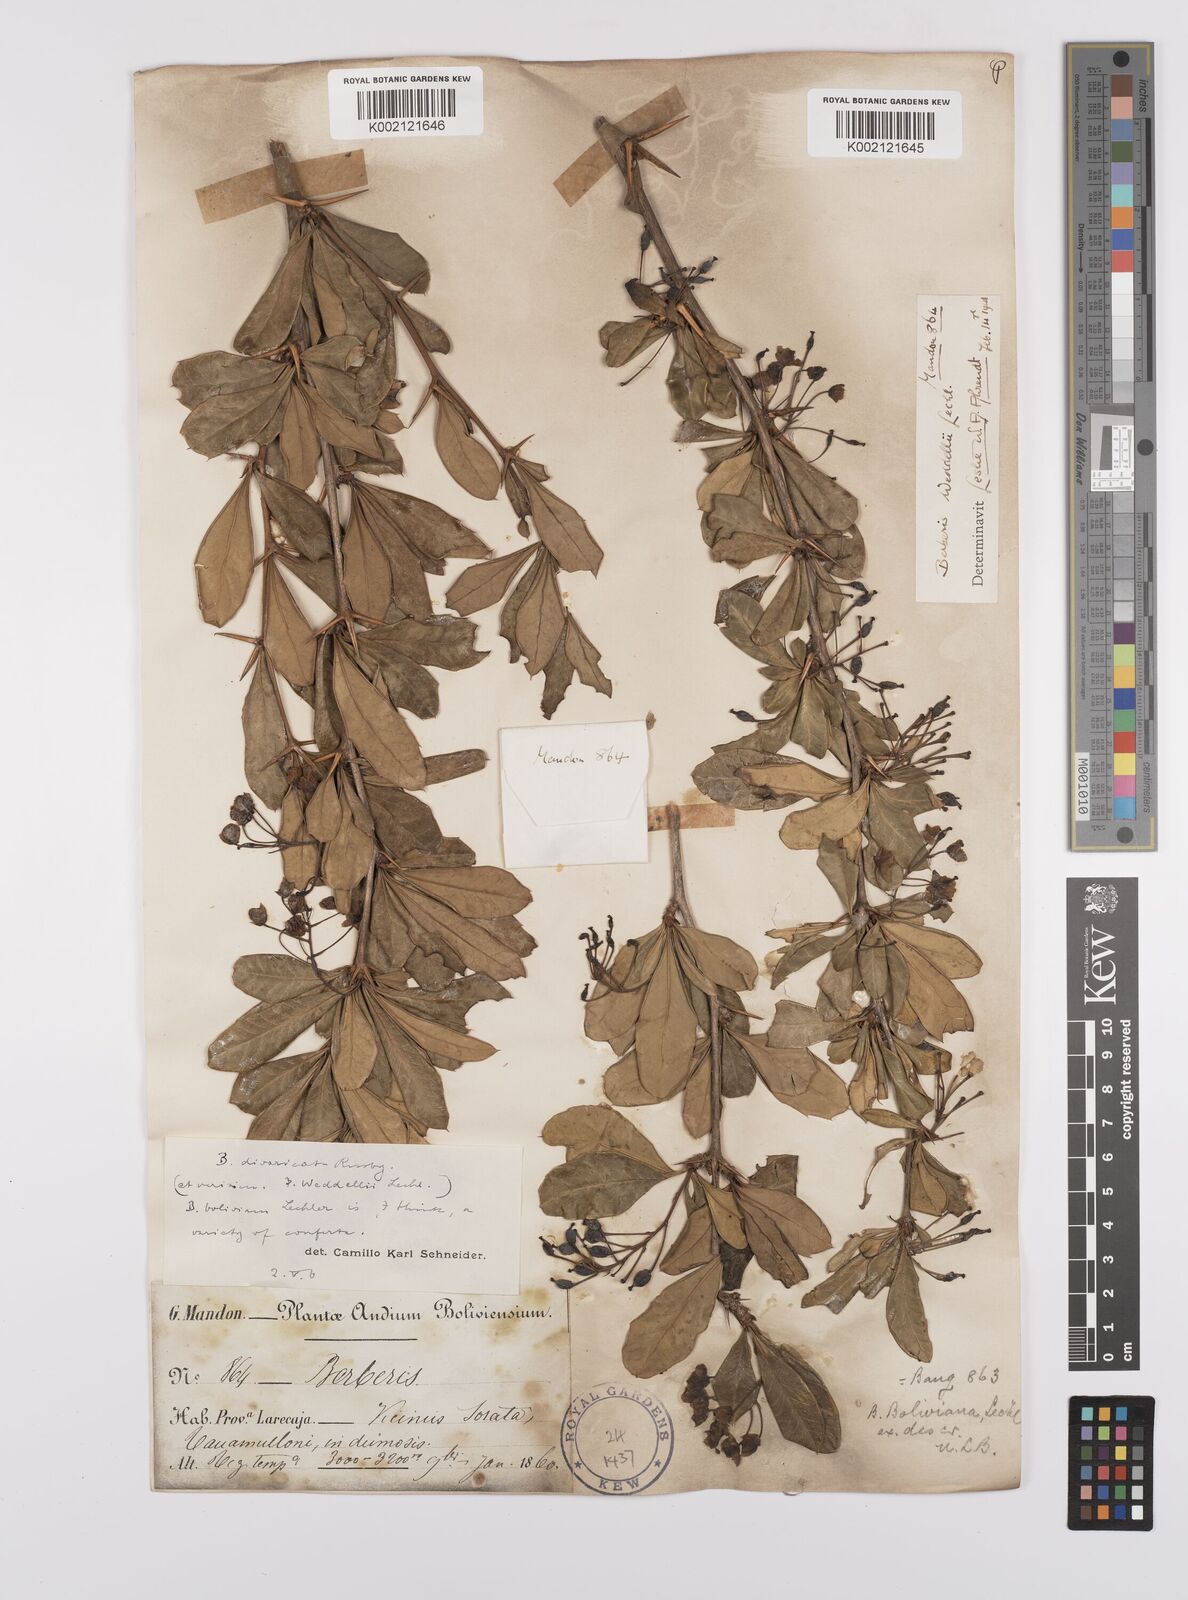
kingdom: Plantae
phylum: Tracheophyta
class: Magnoliopsida
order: Ranunculales
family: Berberidaceae
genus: Berberis
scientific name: Berberis commutata
